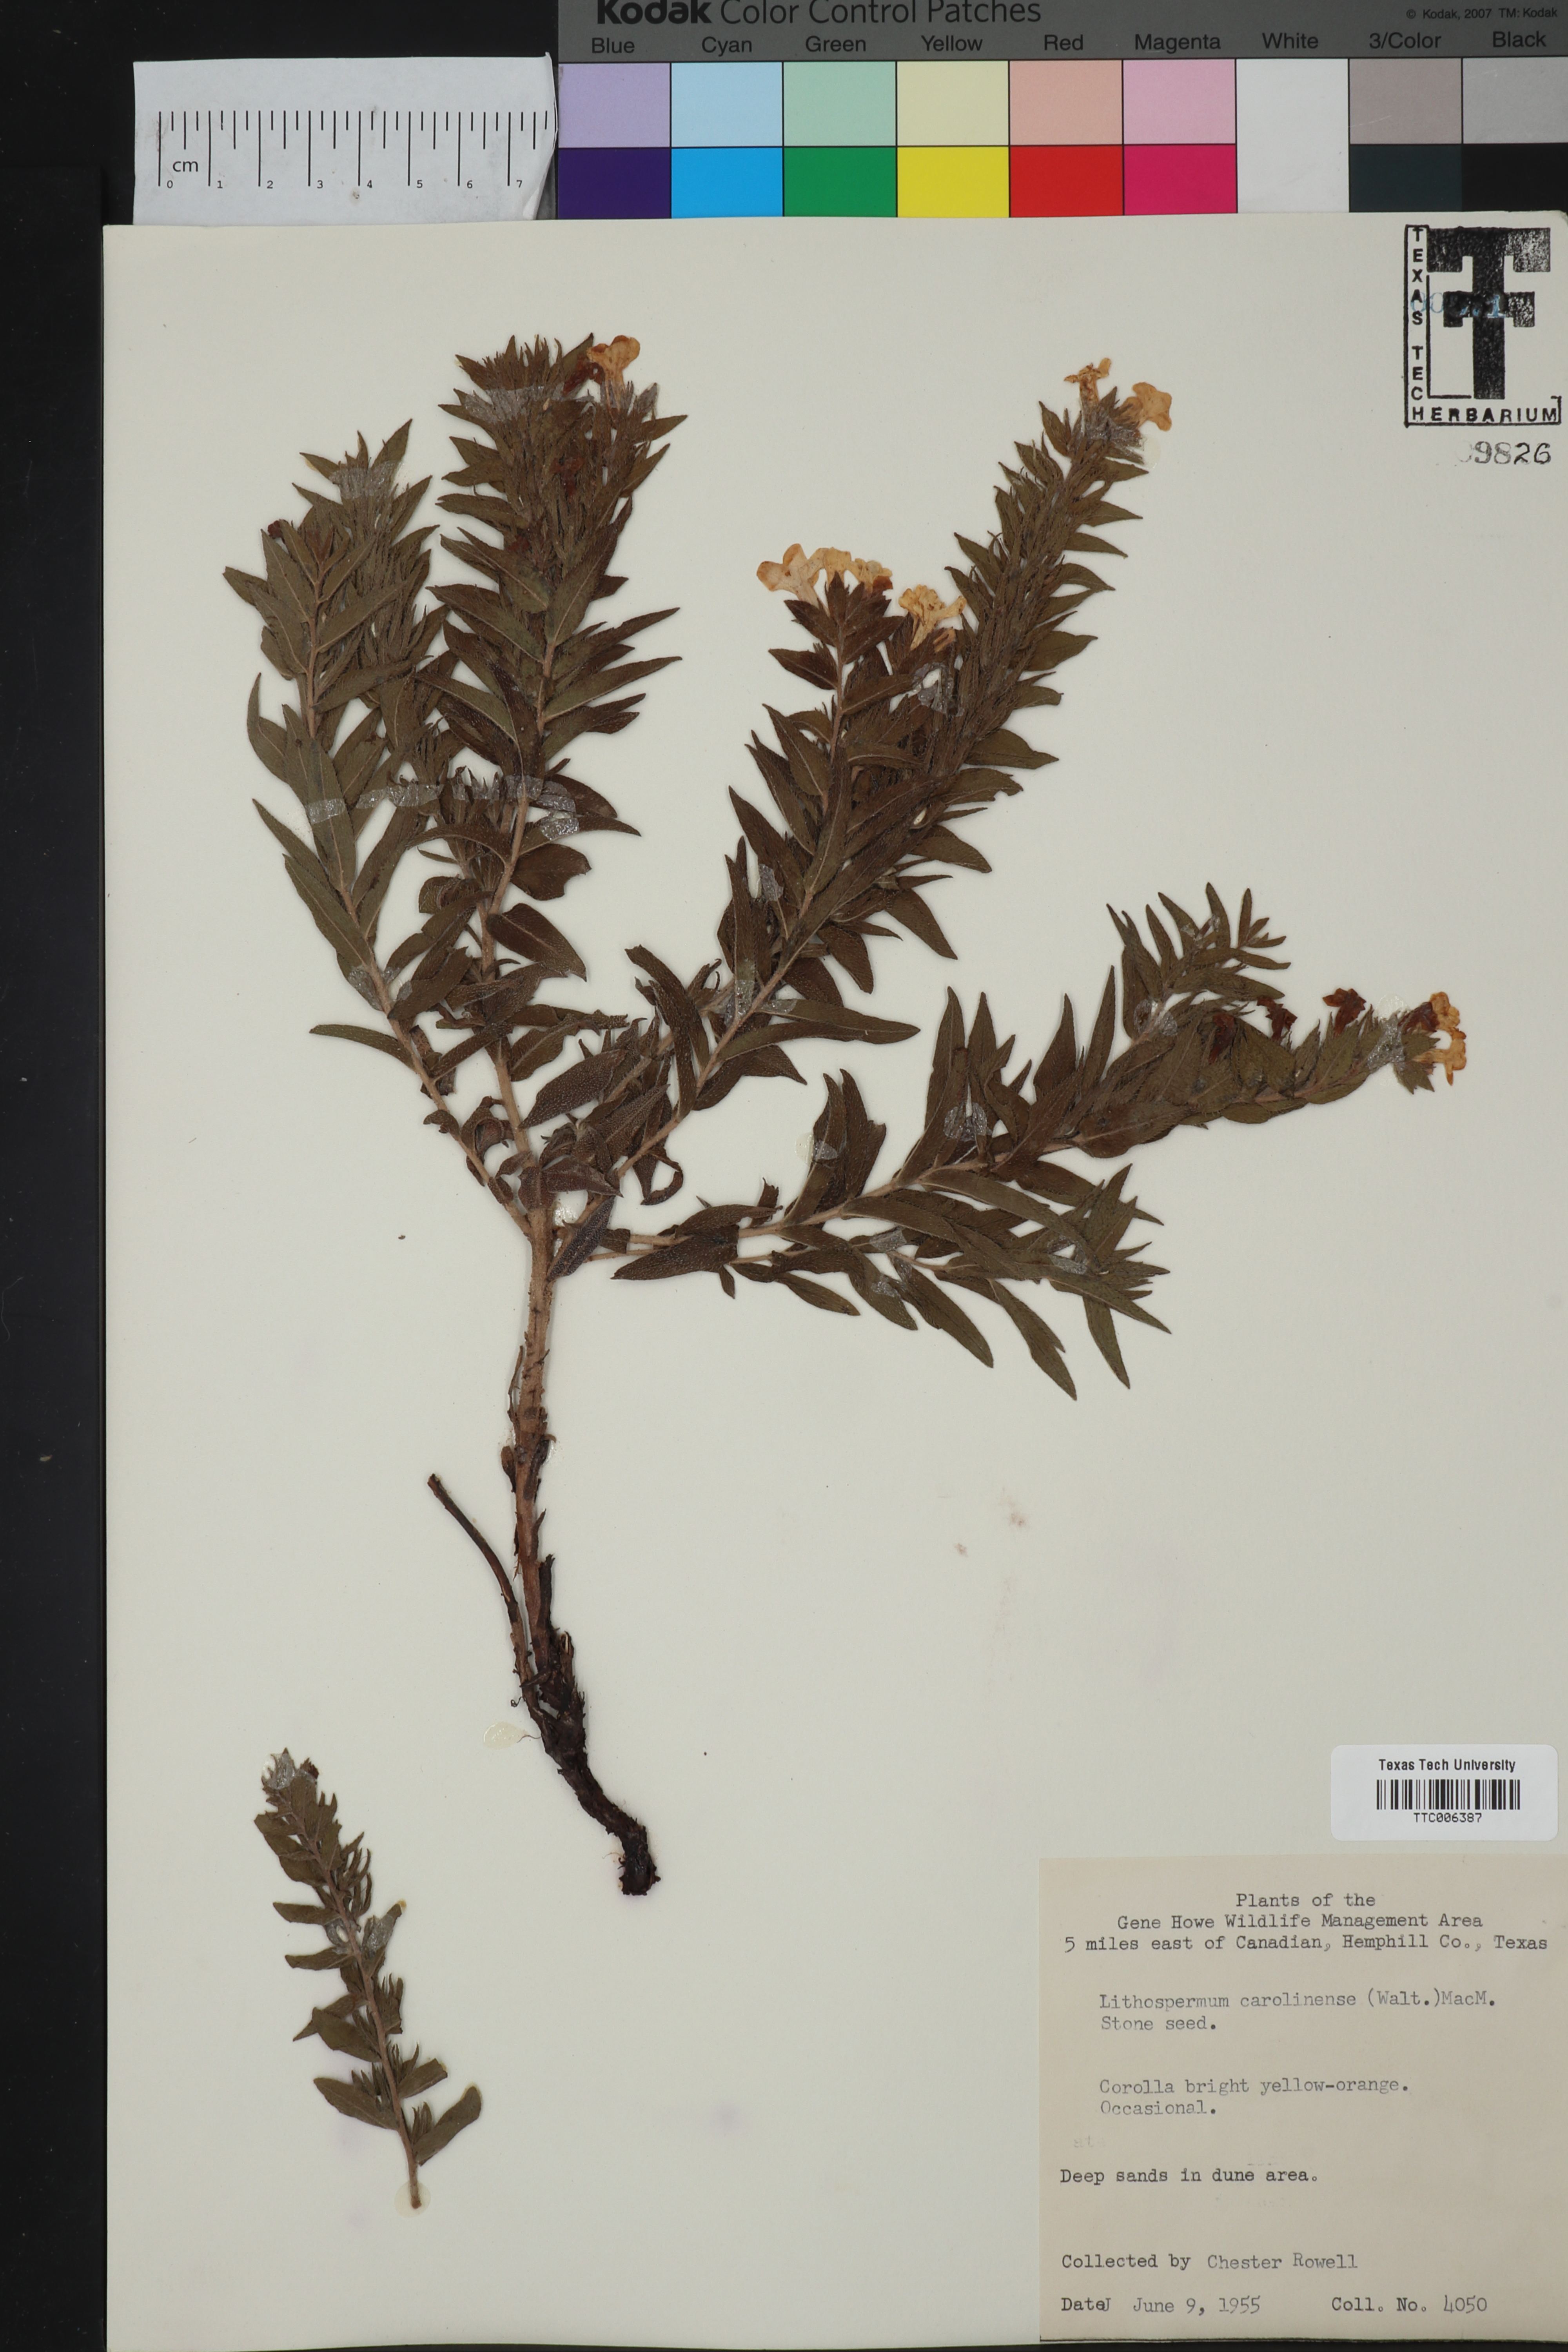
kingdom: Plantae
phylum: Tracheophyta
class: Magnoliopsida
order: Boraginales
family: Boraginaceae
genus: Lithospermum
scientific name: Lithospermum carolinense
